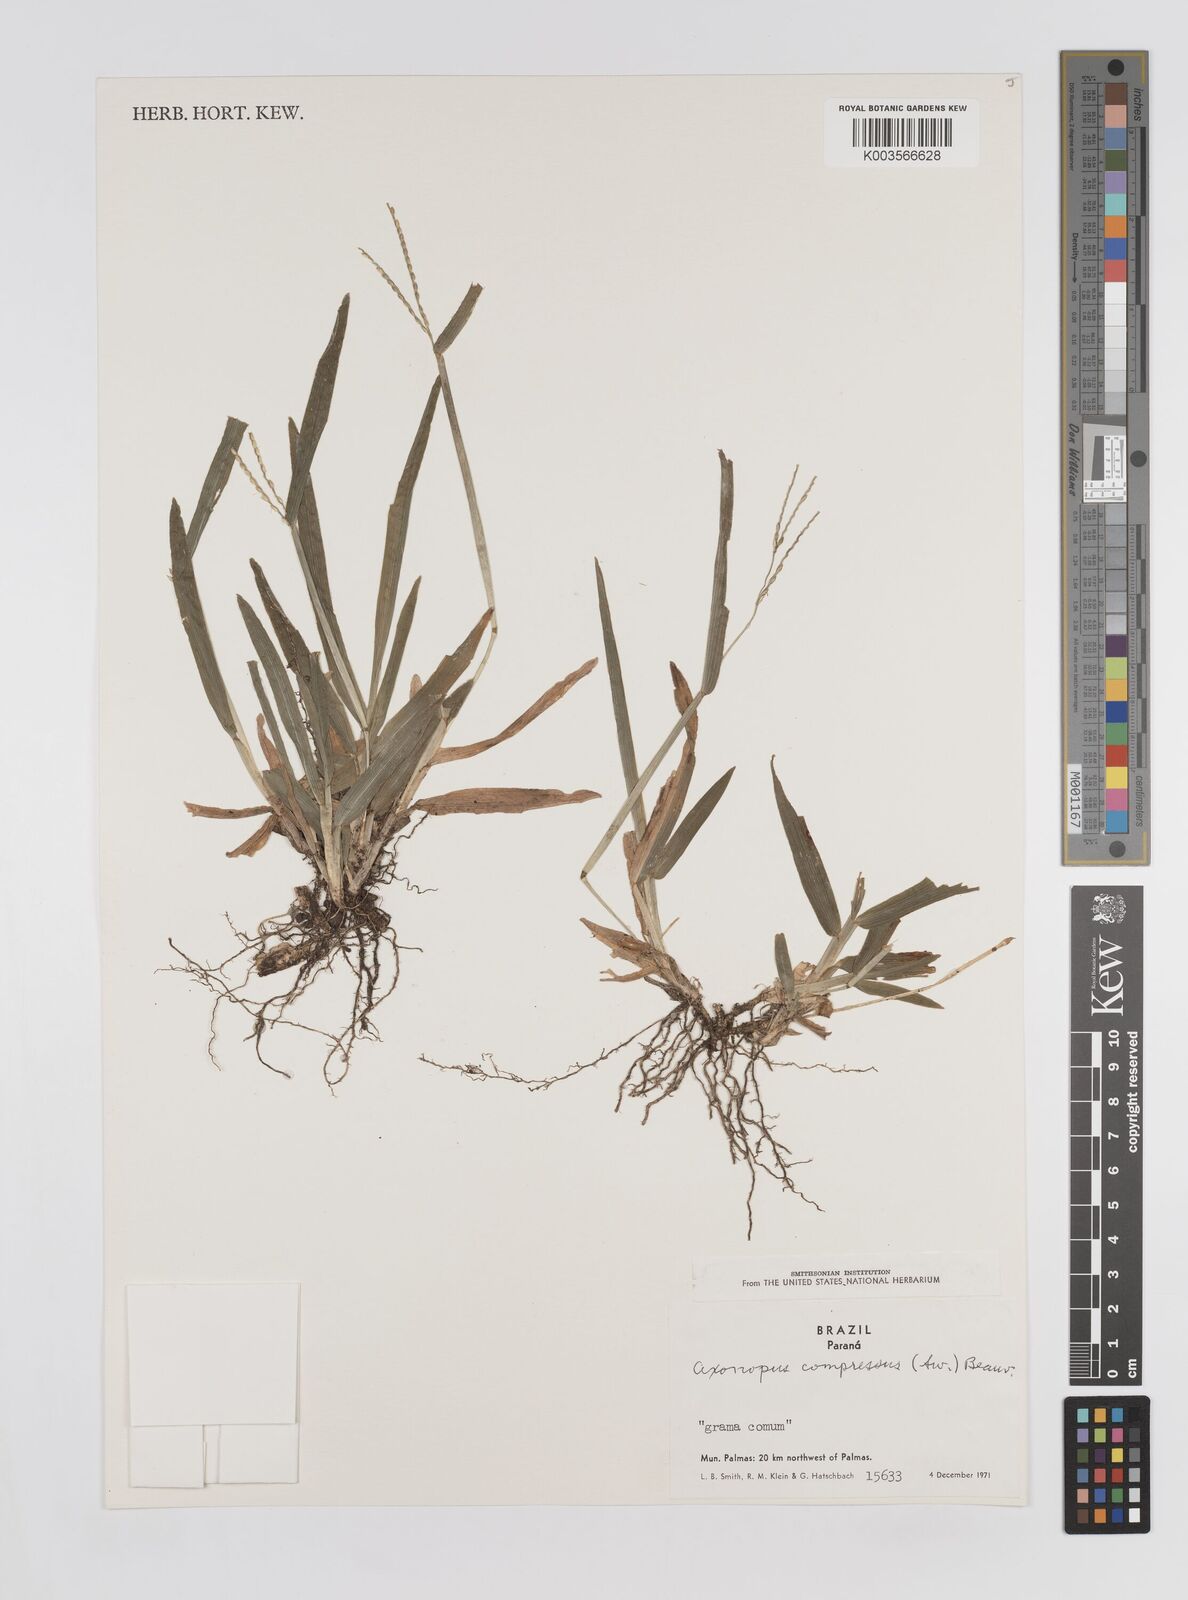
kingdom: Plantae
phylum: Tracheophyta
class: Liliopsida
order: Poales
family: Poaceae
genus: Axonopus
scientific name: Axonopus compressus
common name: American carpet grass
